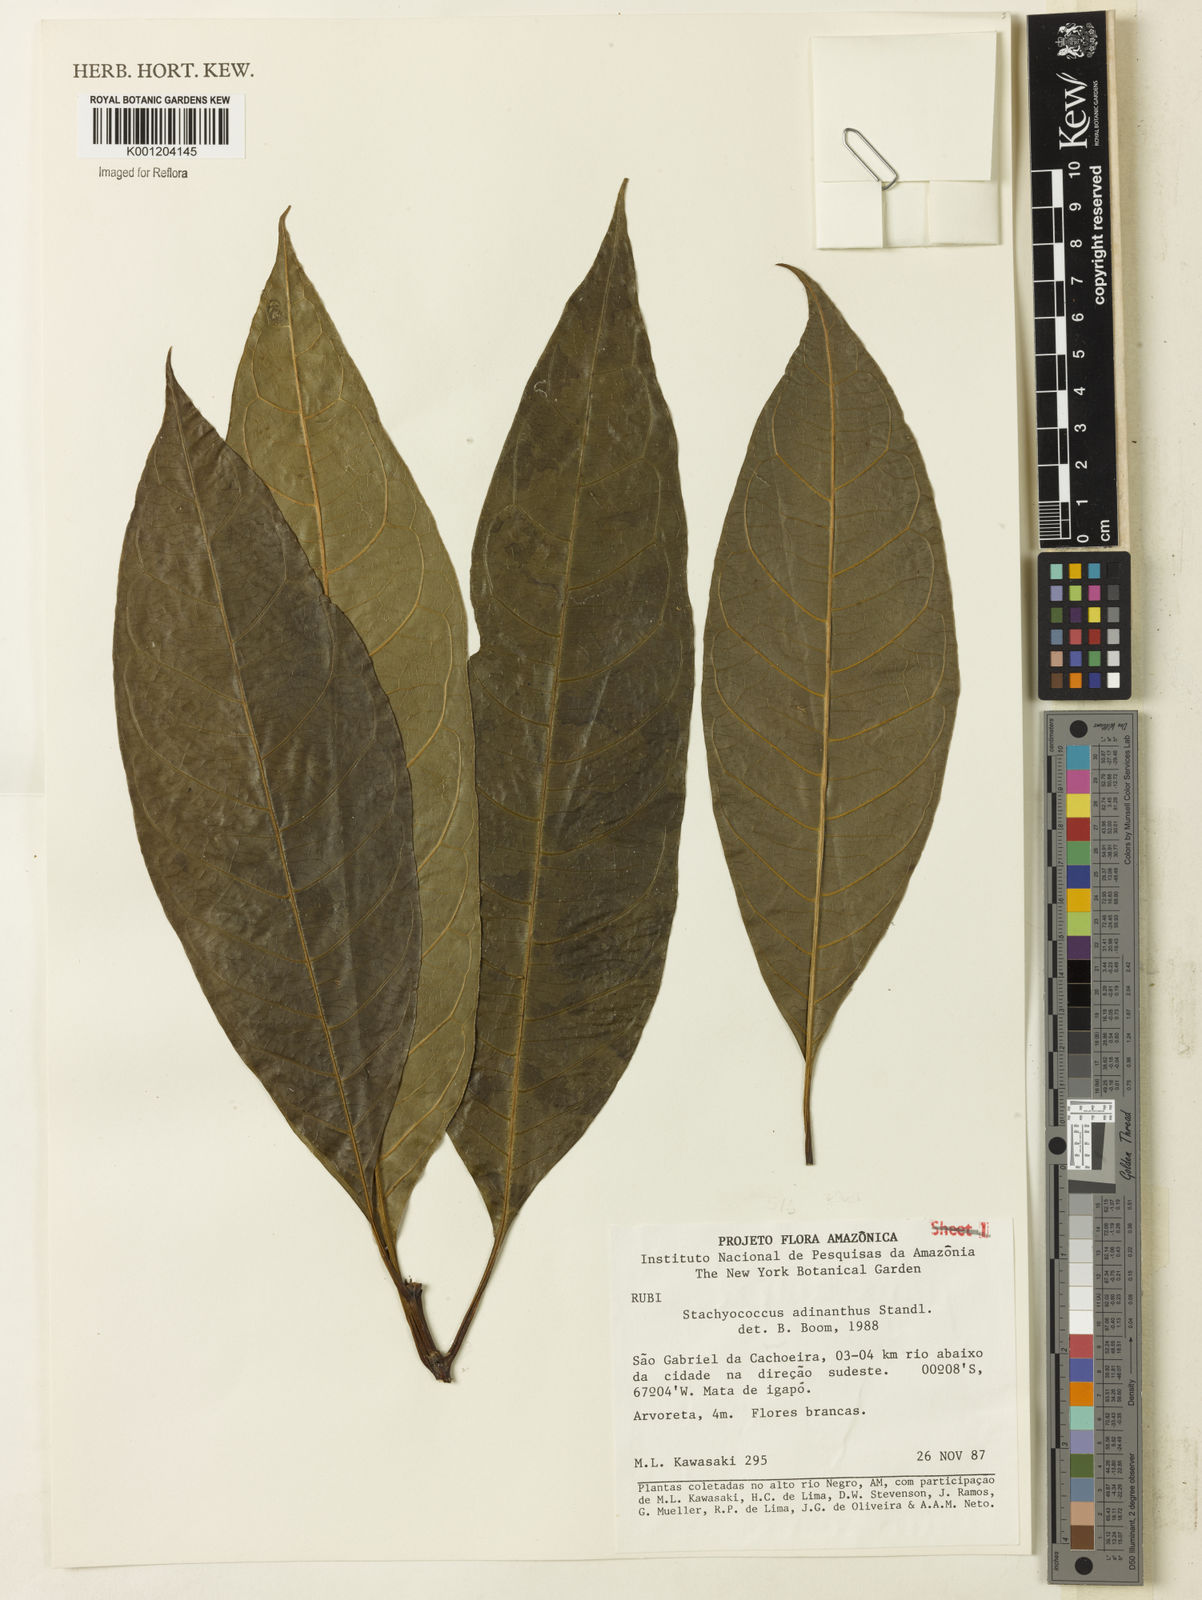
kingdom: Plantae
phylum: Tracheophyta
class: Magnoliopsida
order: Gentianales
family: Rubiaceae
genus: Carapichea
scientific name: Carapichea adinantha
